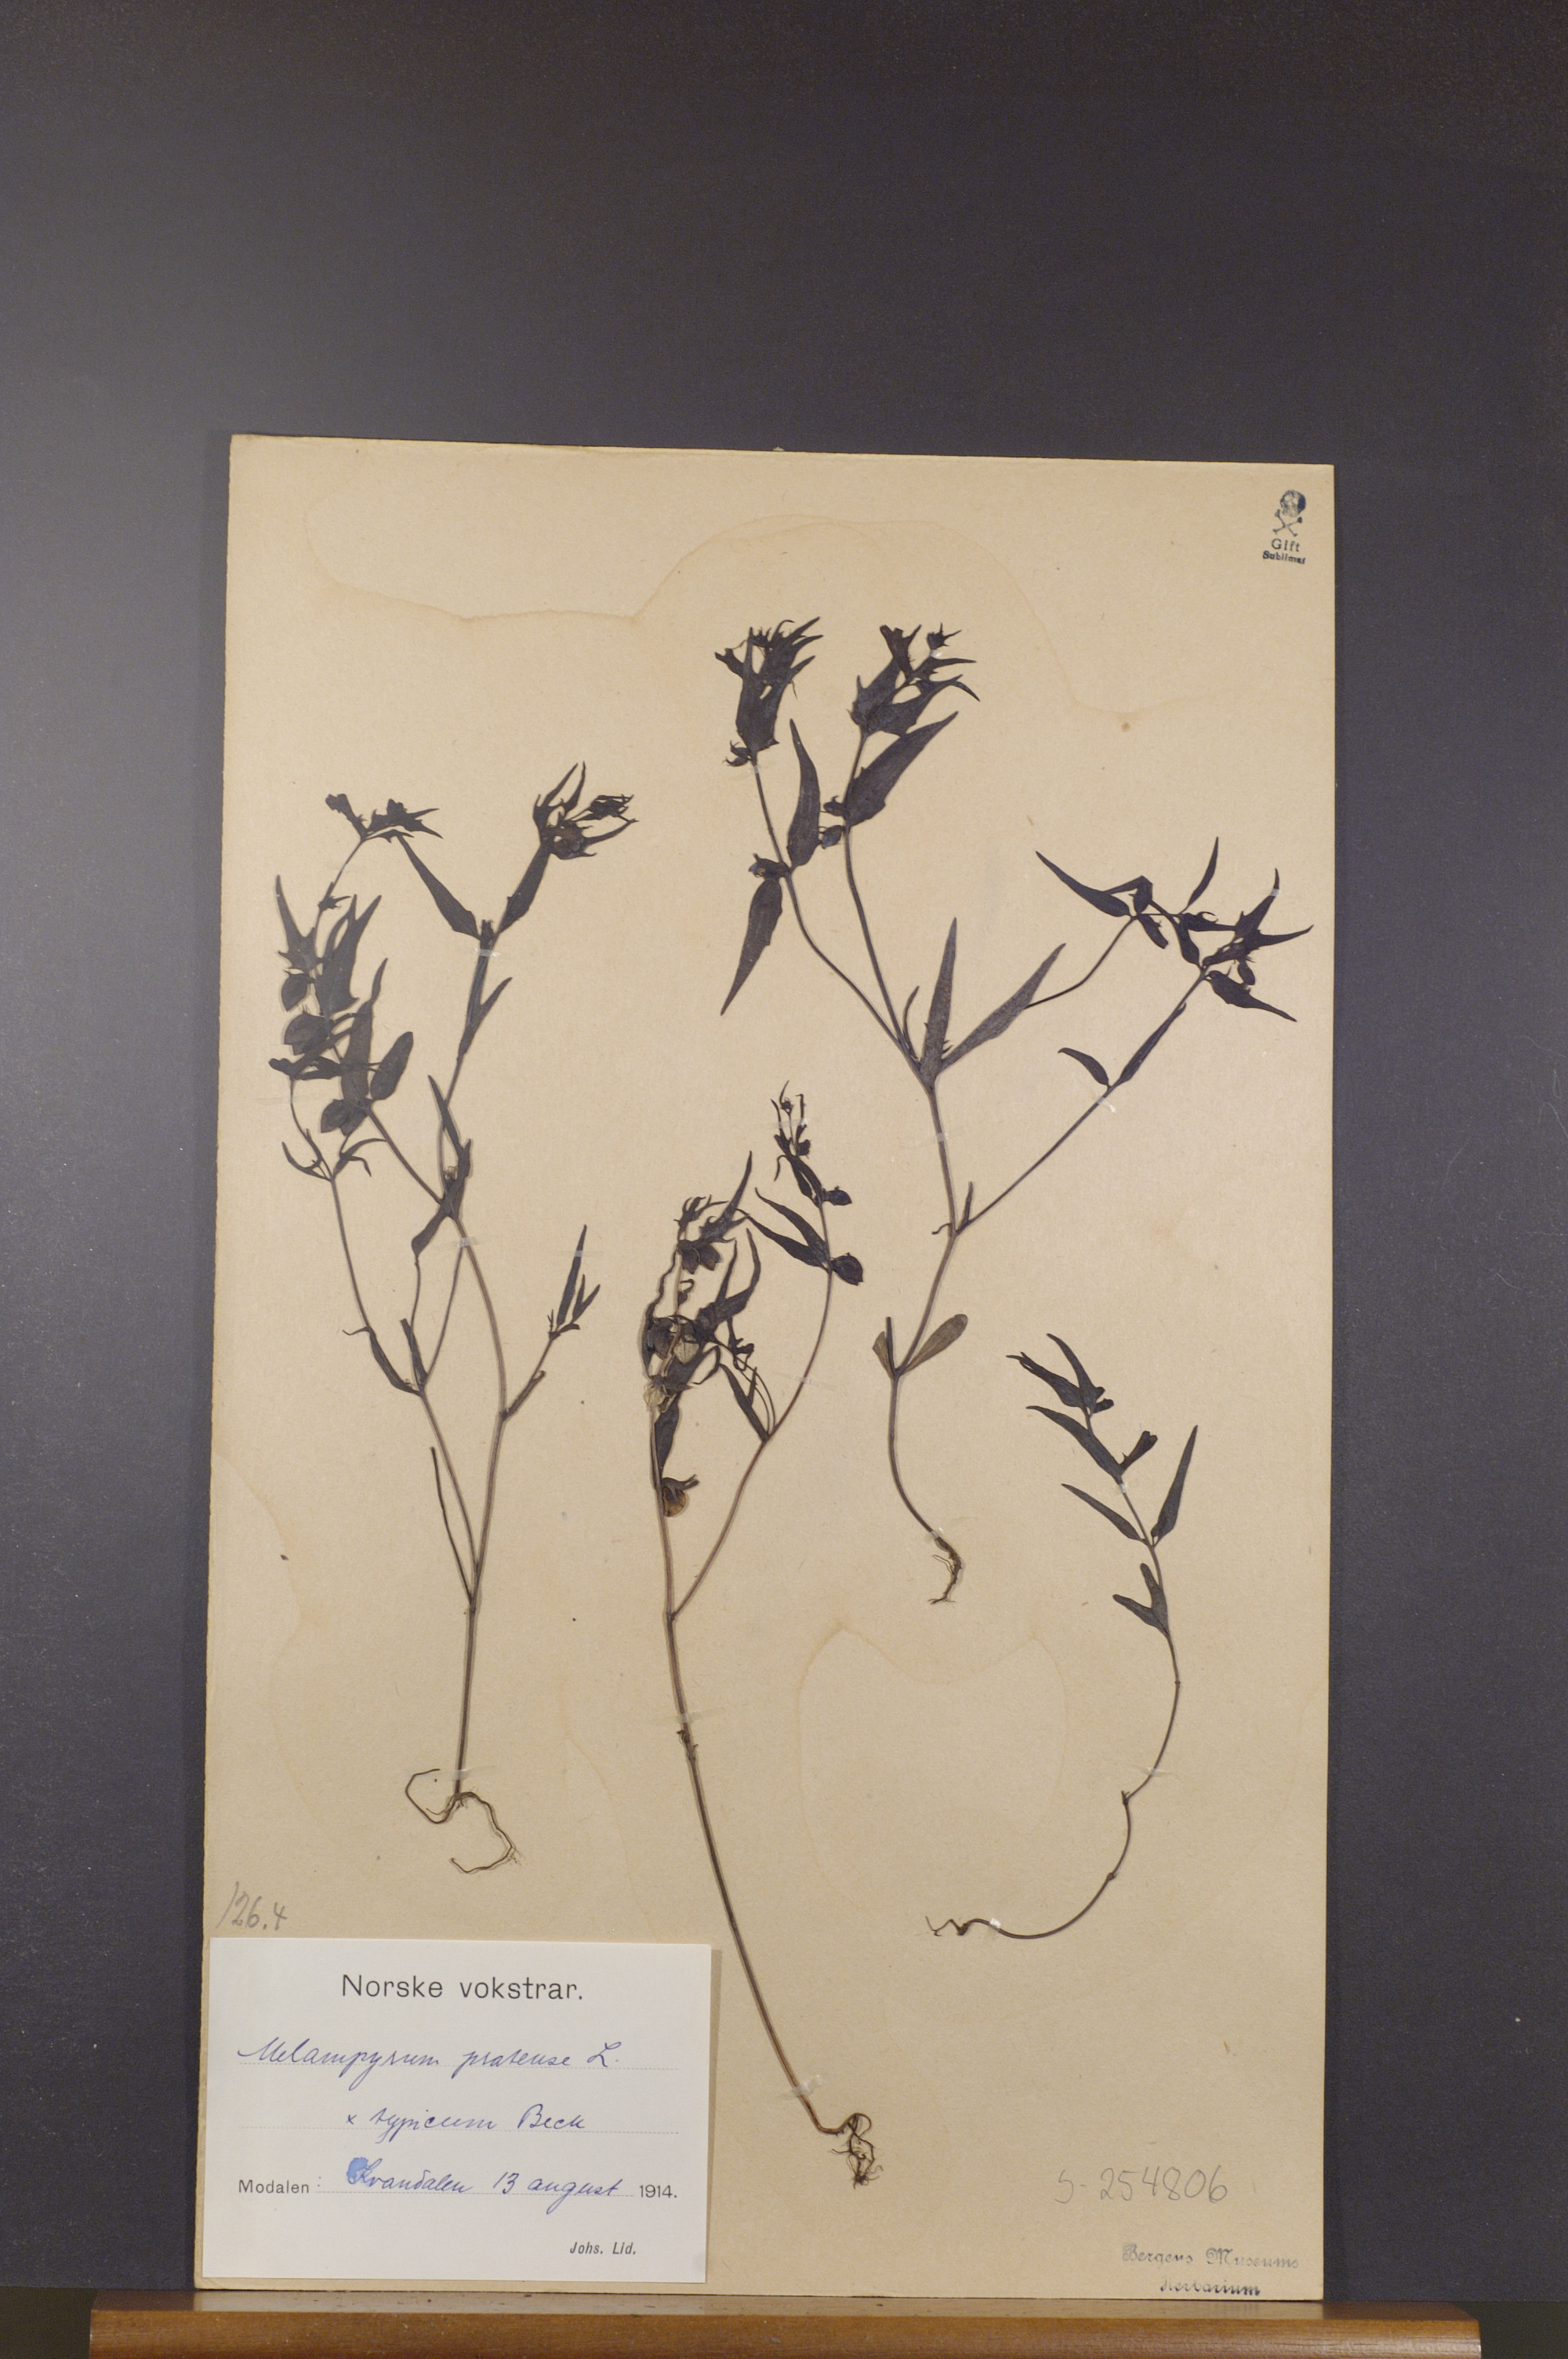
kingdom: Plantae
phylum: Tracheophyta
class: Magnoliopsida
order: Lamiales
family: Orobanchaceae
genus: Melampyrum
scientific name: Melampyrum pratense
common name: Common cow-wheat
